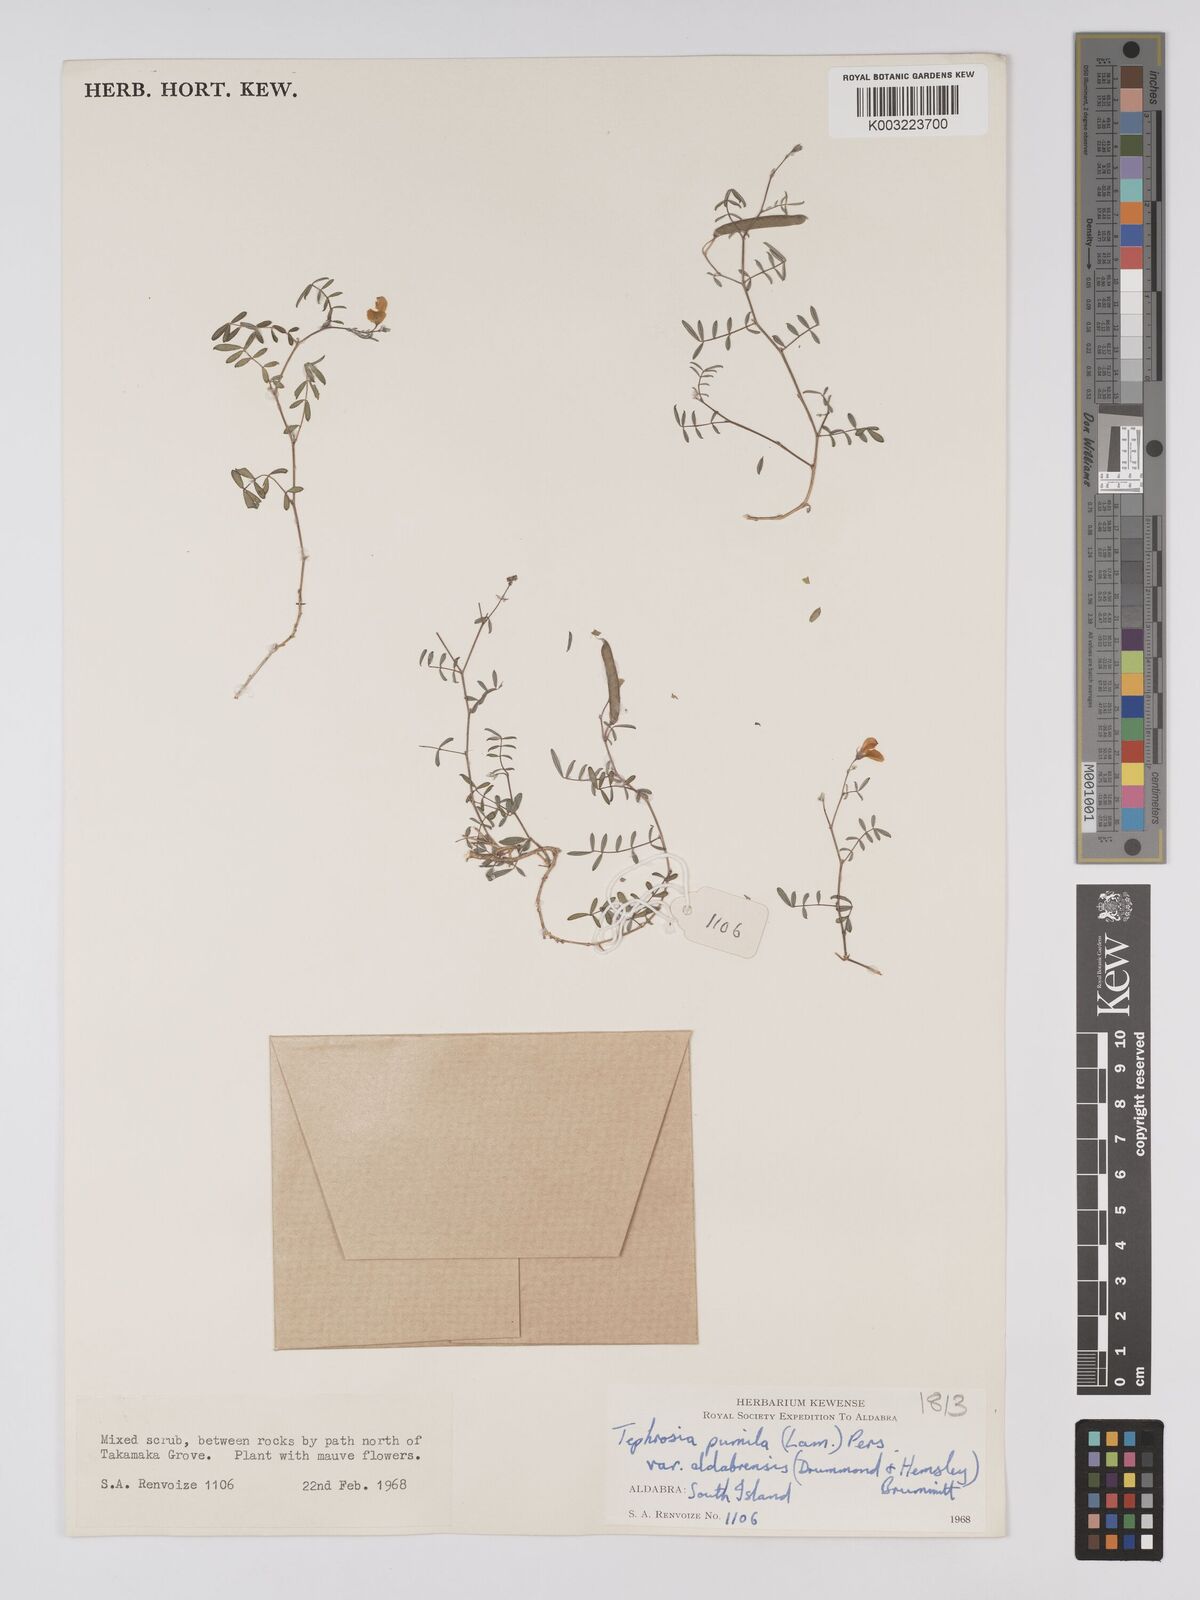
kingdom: Plantae
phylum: Tracheophyta
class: Magnoliopsida
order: Fabales
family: Fabaceae
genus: Tephrosia
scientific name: Tephrosia pumila
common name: Indigo sauvage
